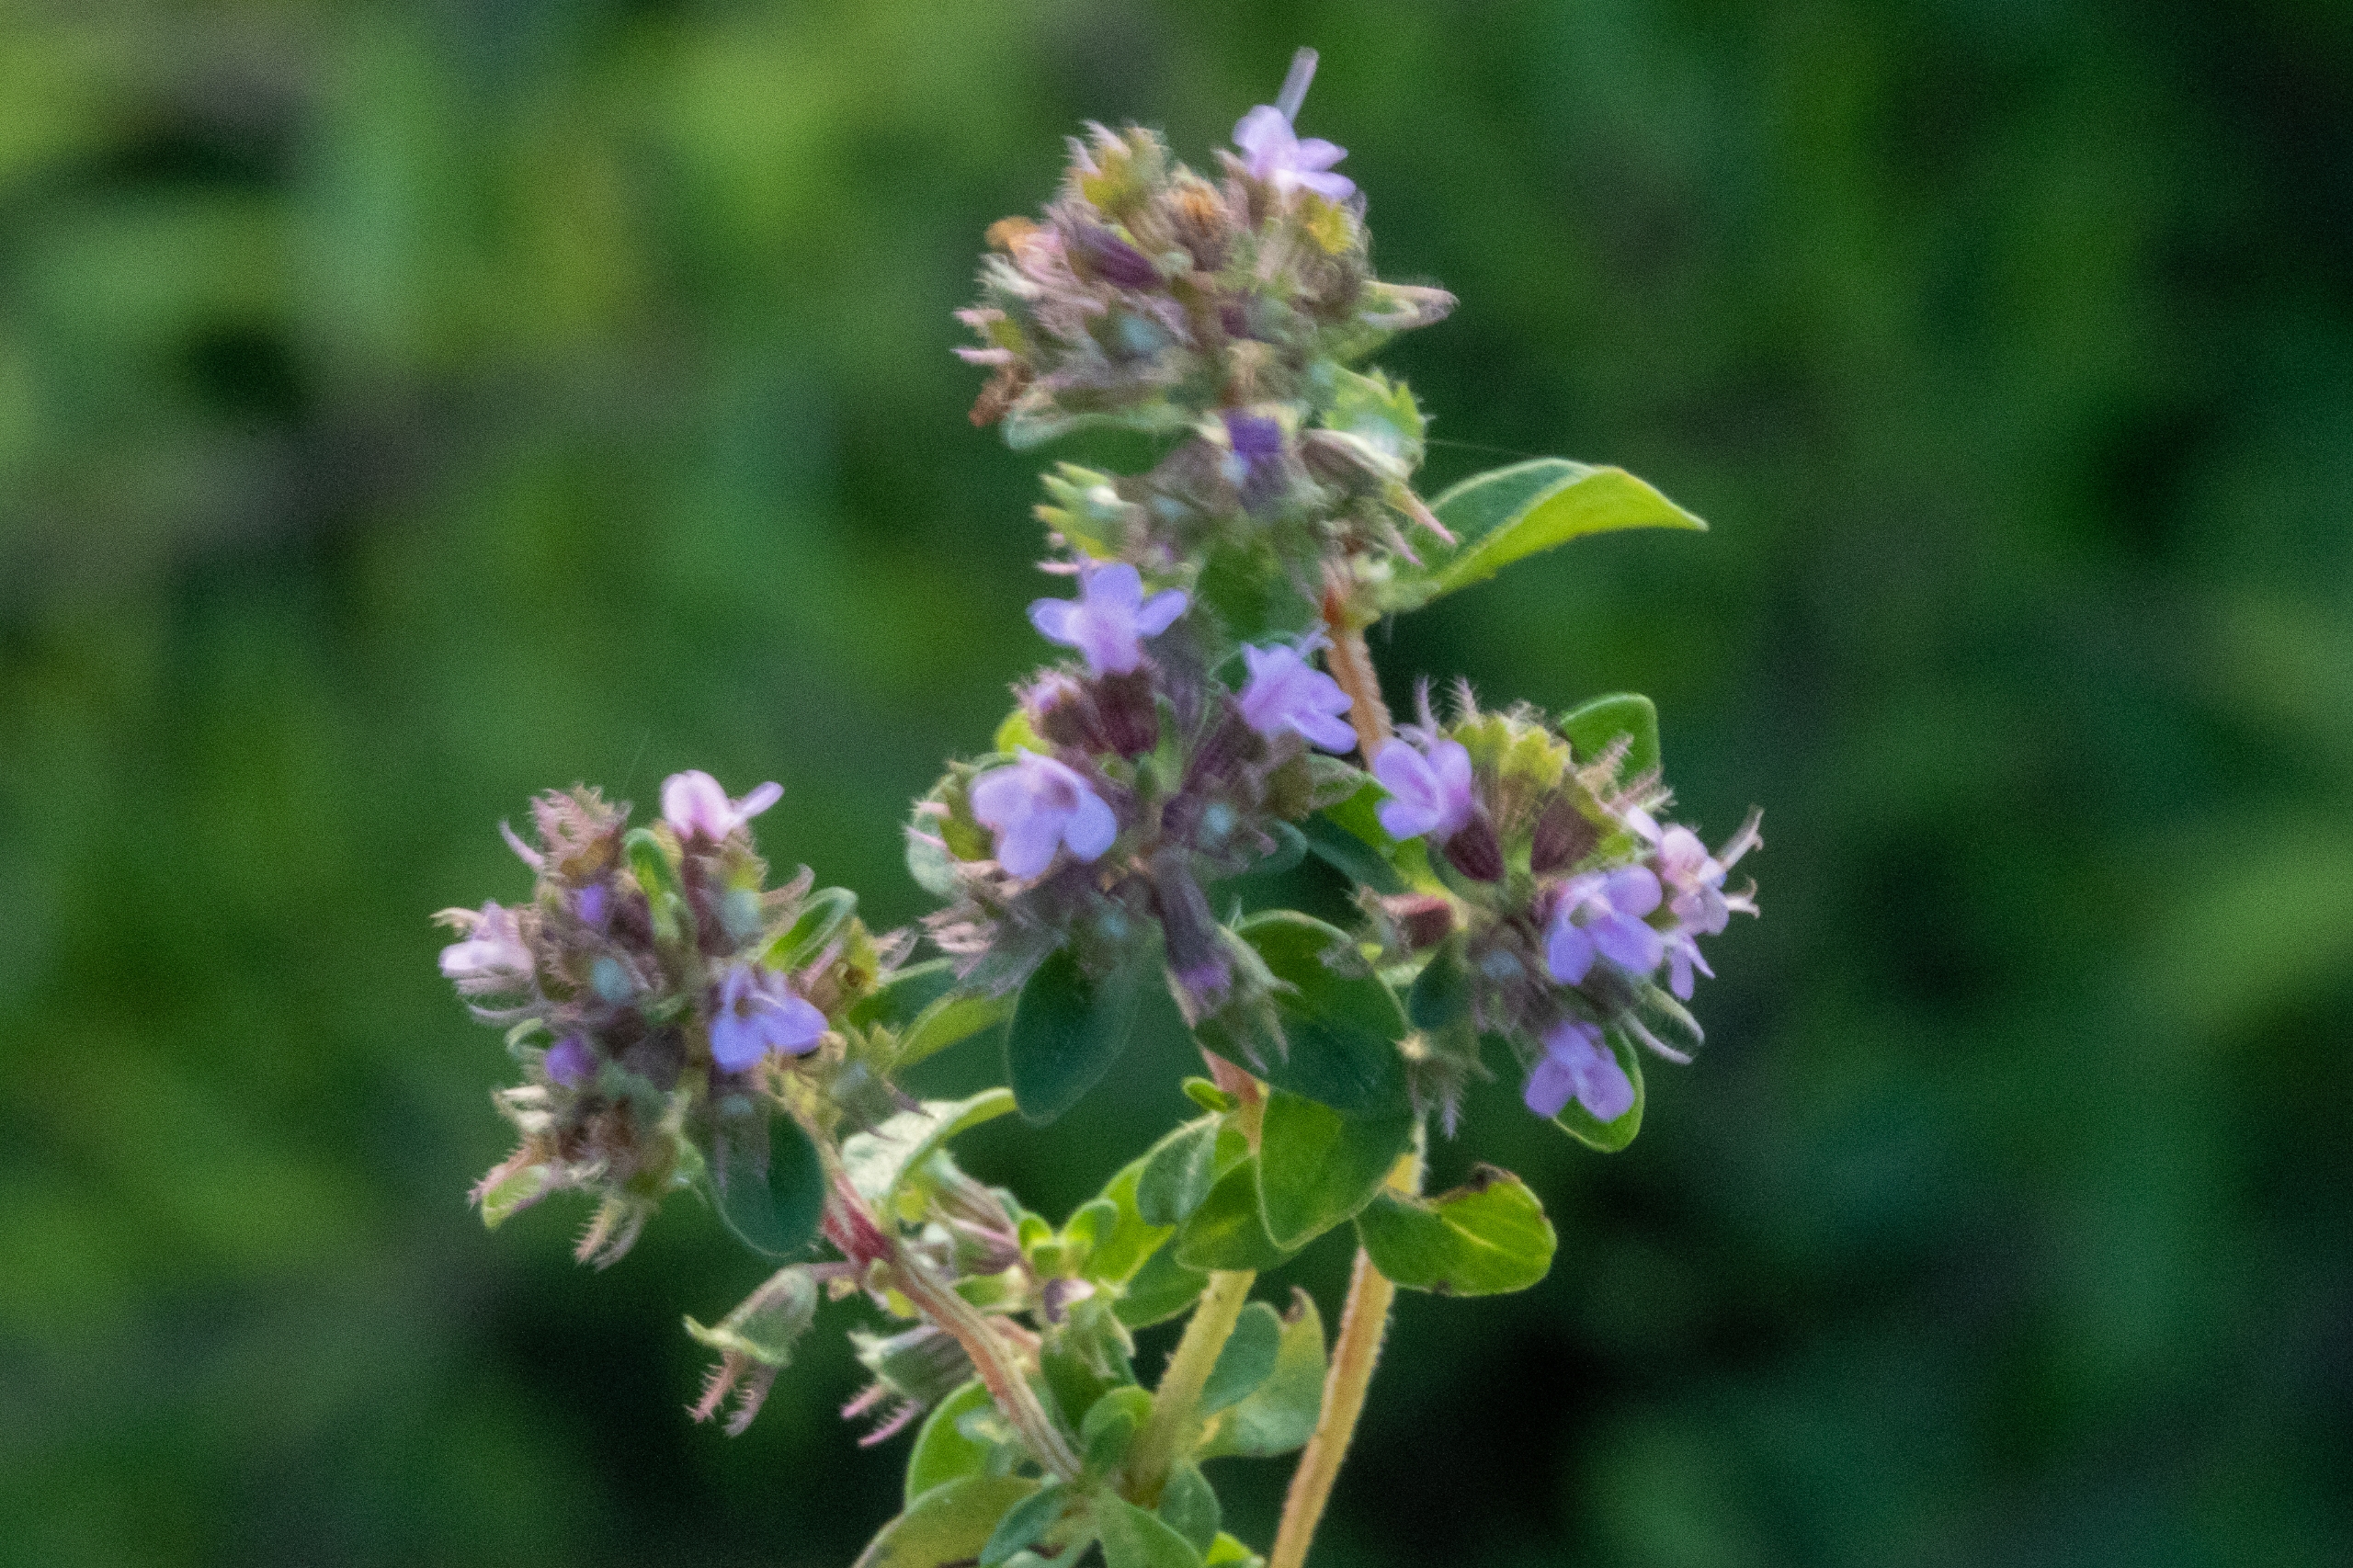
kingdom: Plantae
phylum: Tracheophyta
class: Magnoliopsida
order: Lamiales
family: Lamiaceae
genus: Thymus
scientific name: Thymus pulegioides
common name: Bredbladet timian
